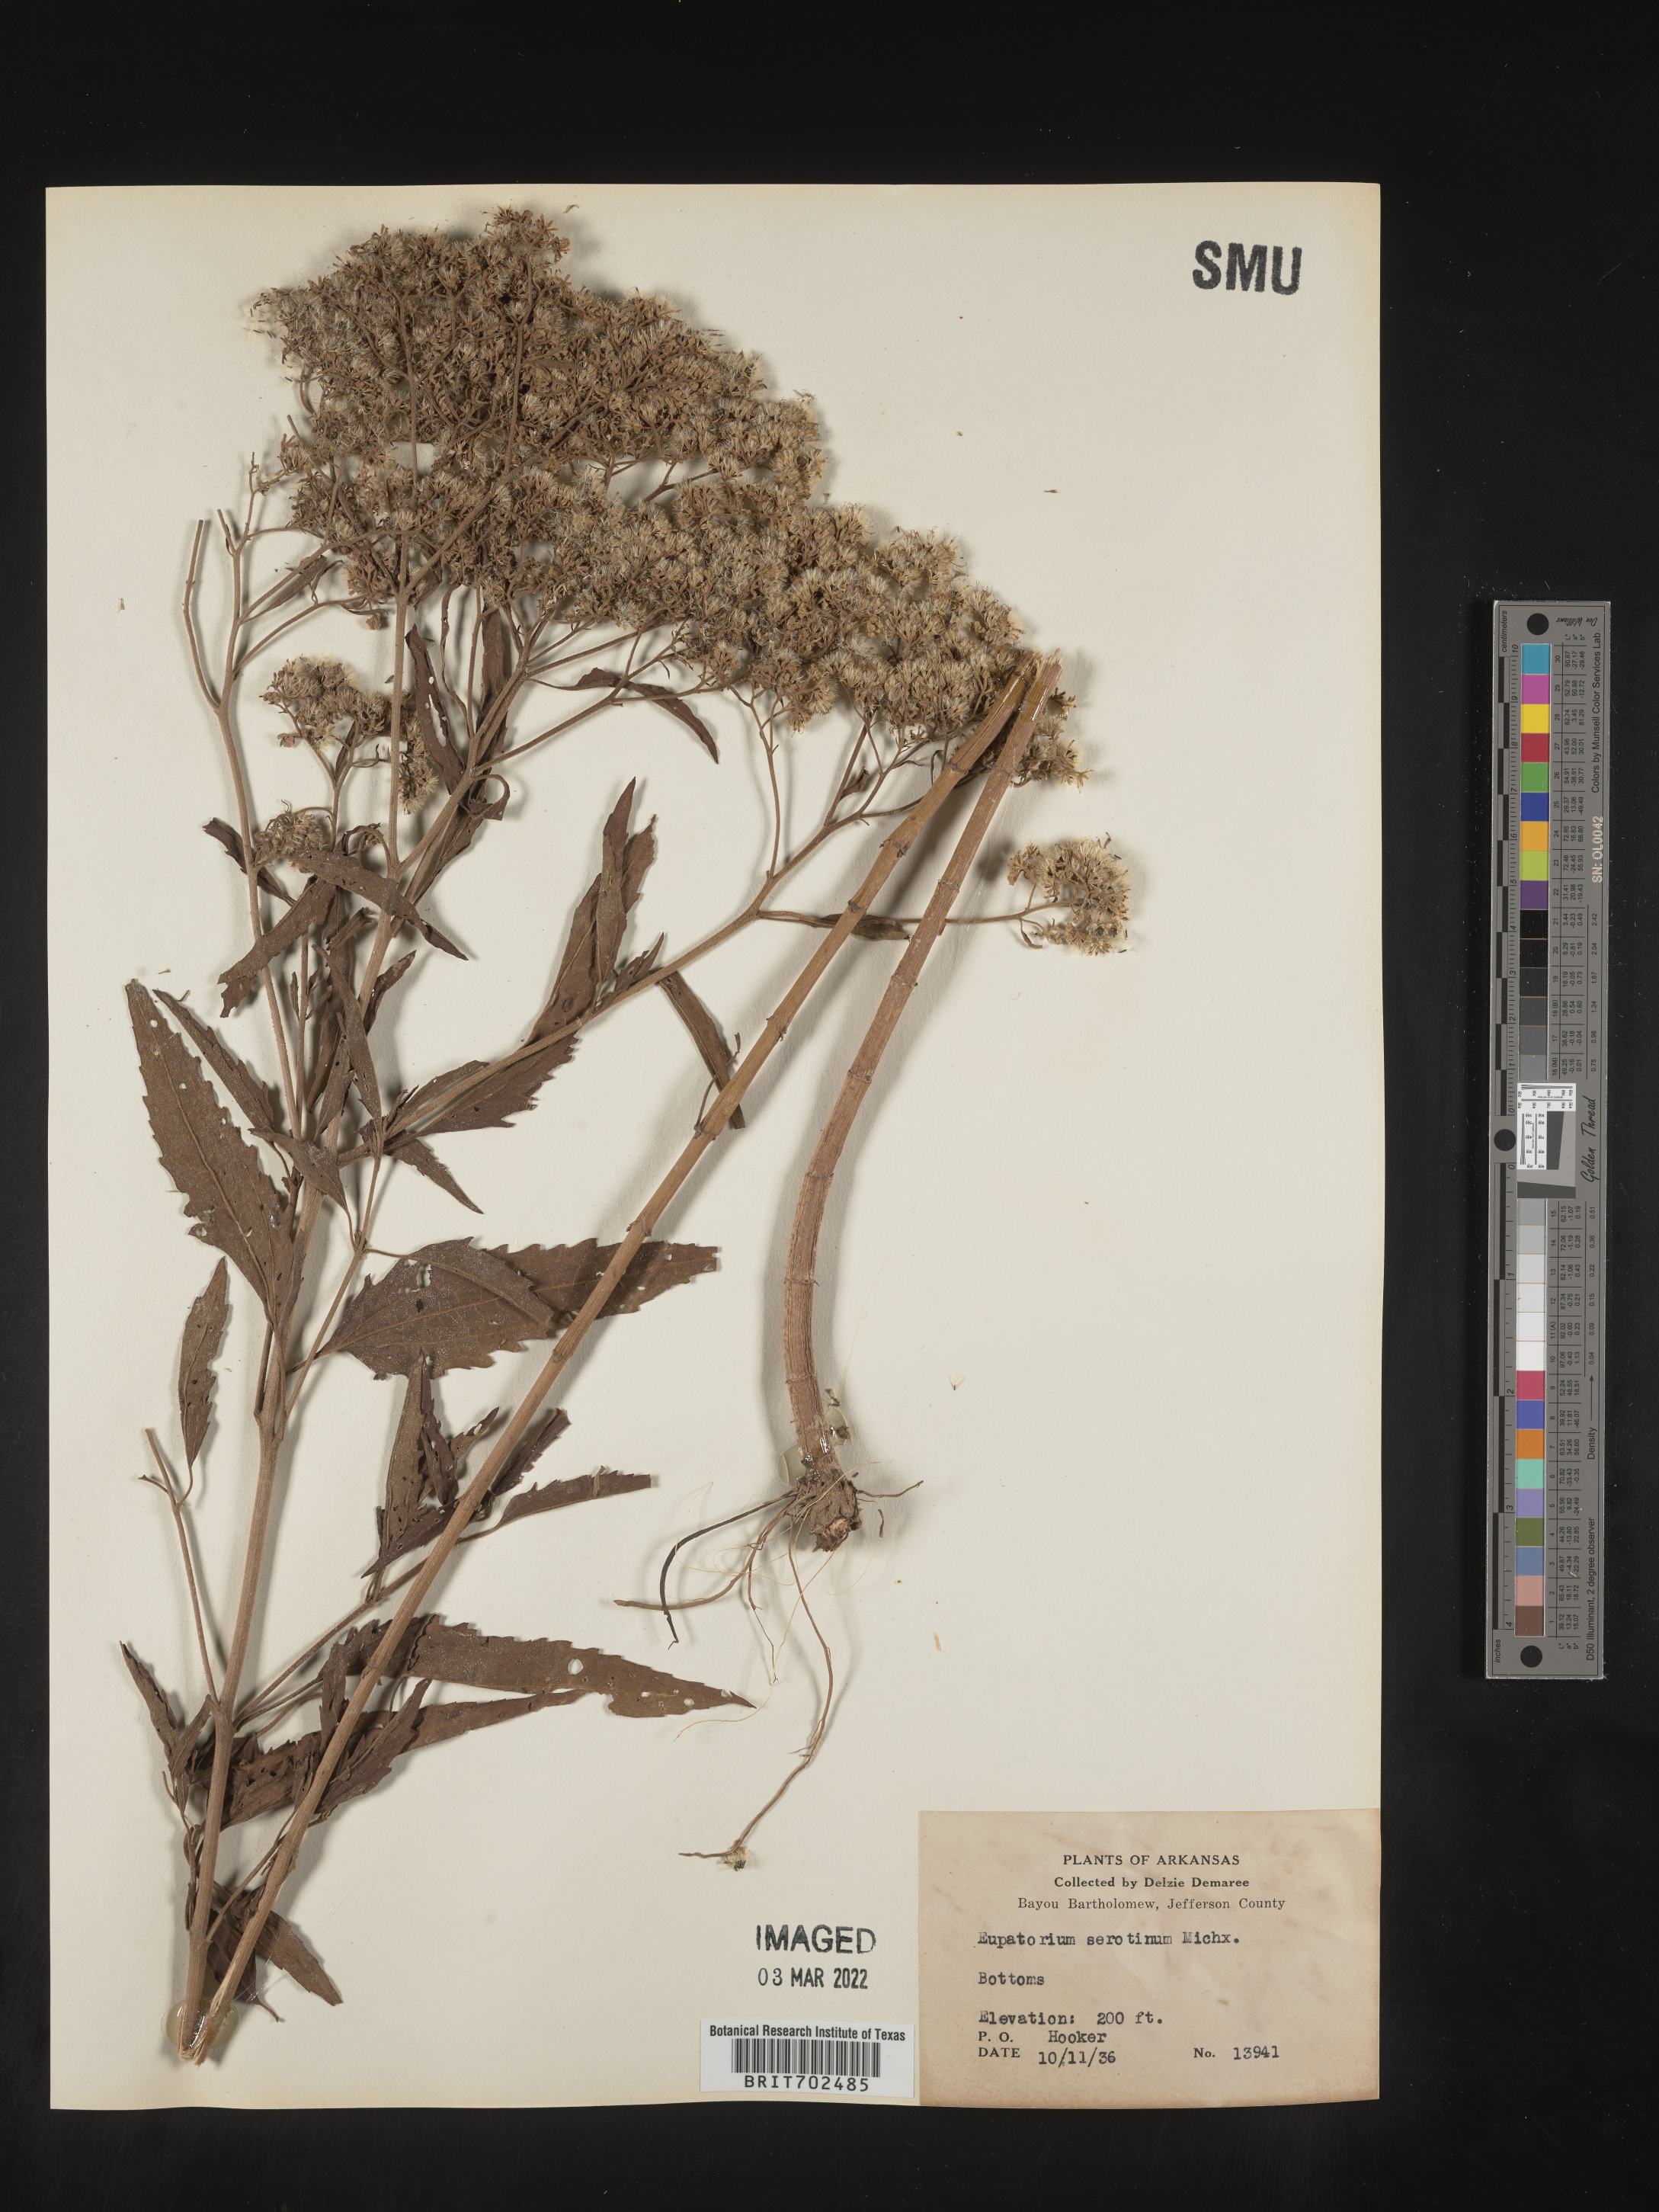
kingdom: Plantae
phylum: Tracheophyta
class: Magnoliopsida
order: Asterales
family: Asteraceae
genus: Eupatorium
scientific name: Eupatorium serotinum
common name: Late boneset
